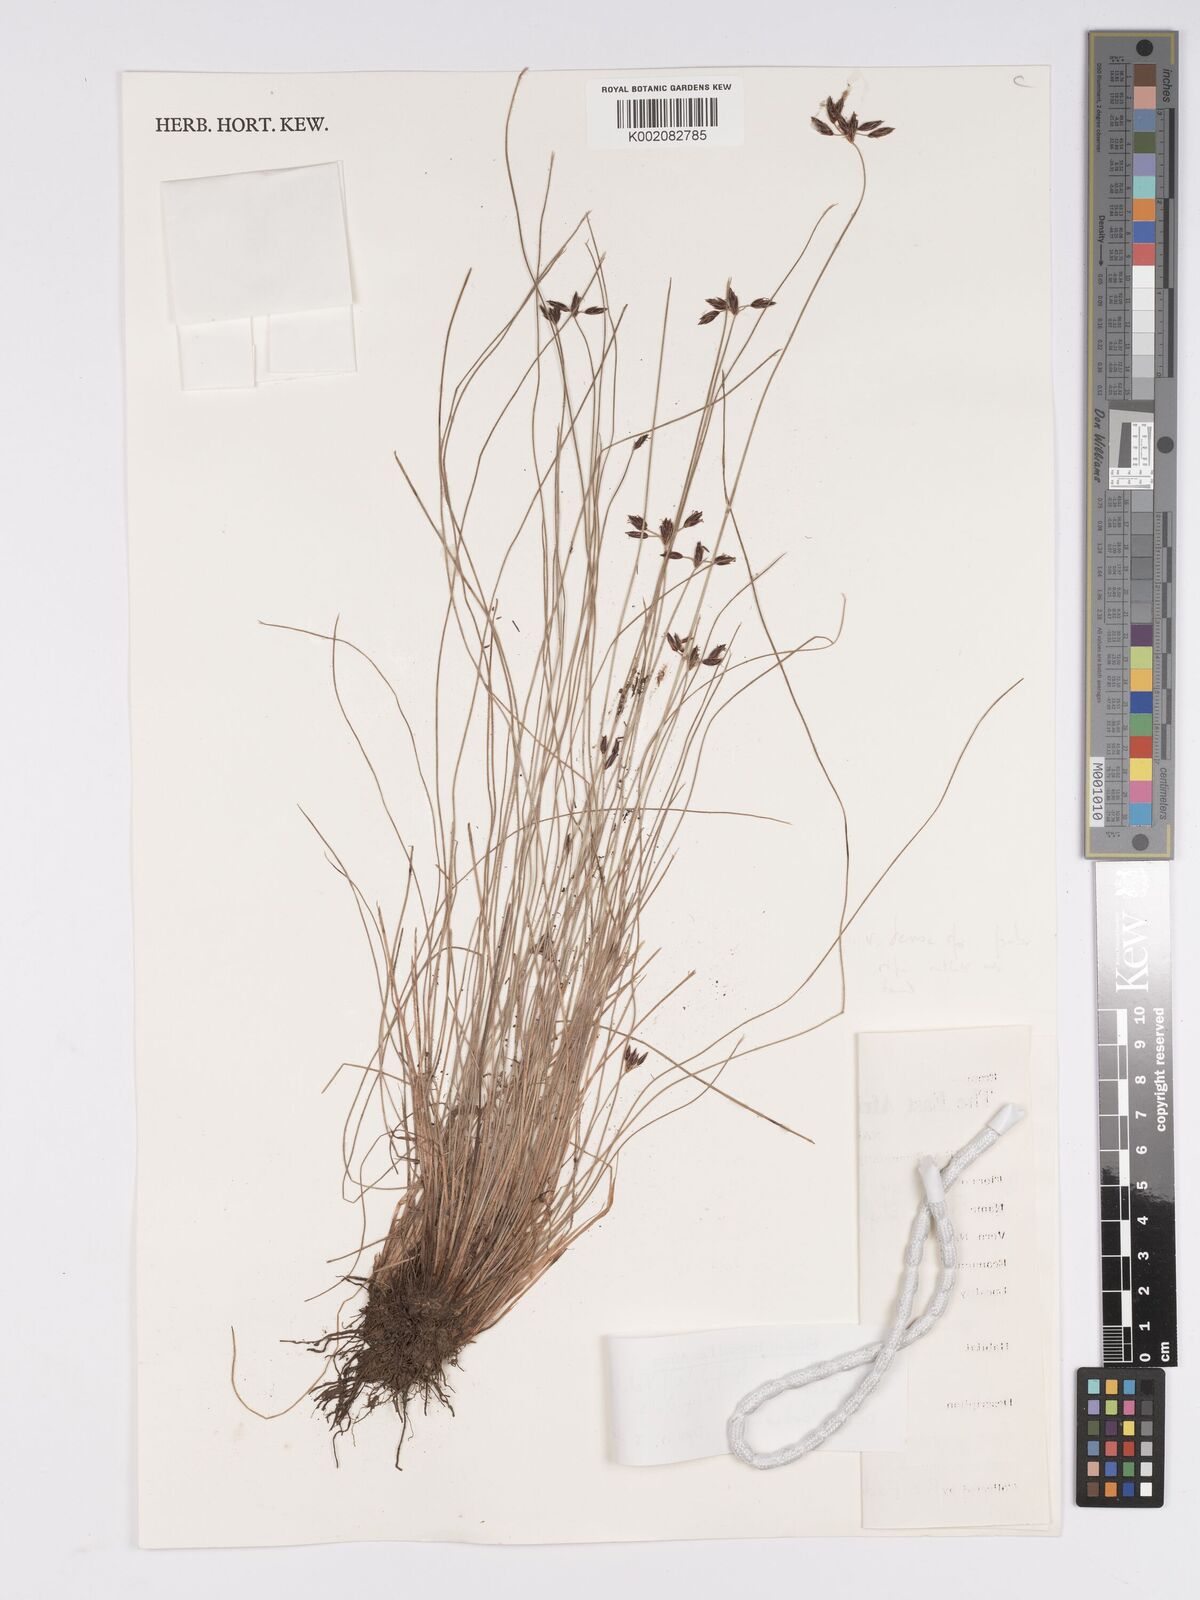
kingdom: Plantae
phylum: Tracheophyta
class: Liliopsida
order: Poales
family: Cyperaceae
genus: Bulbostylis
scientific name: Bulbostylis hispidula
